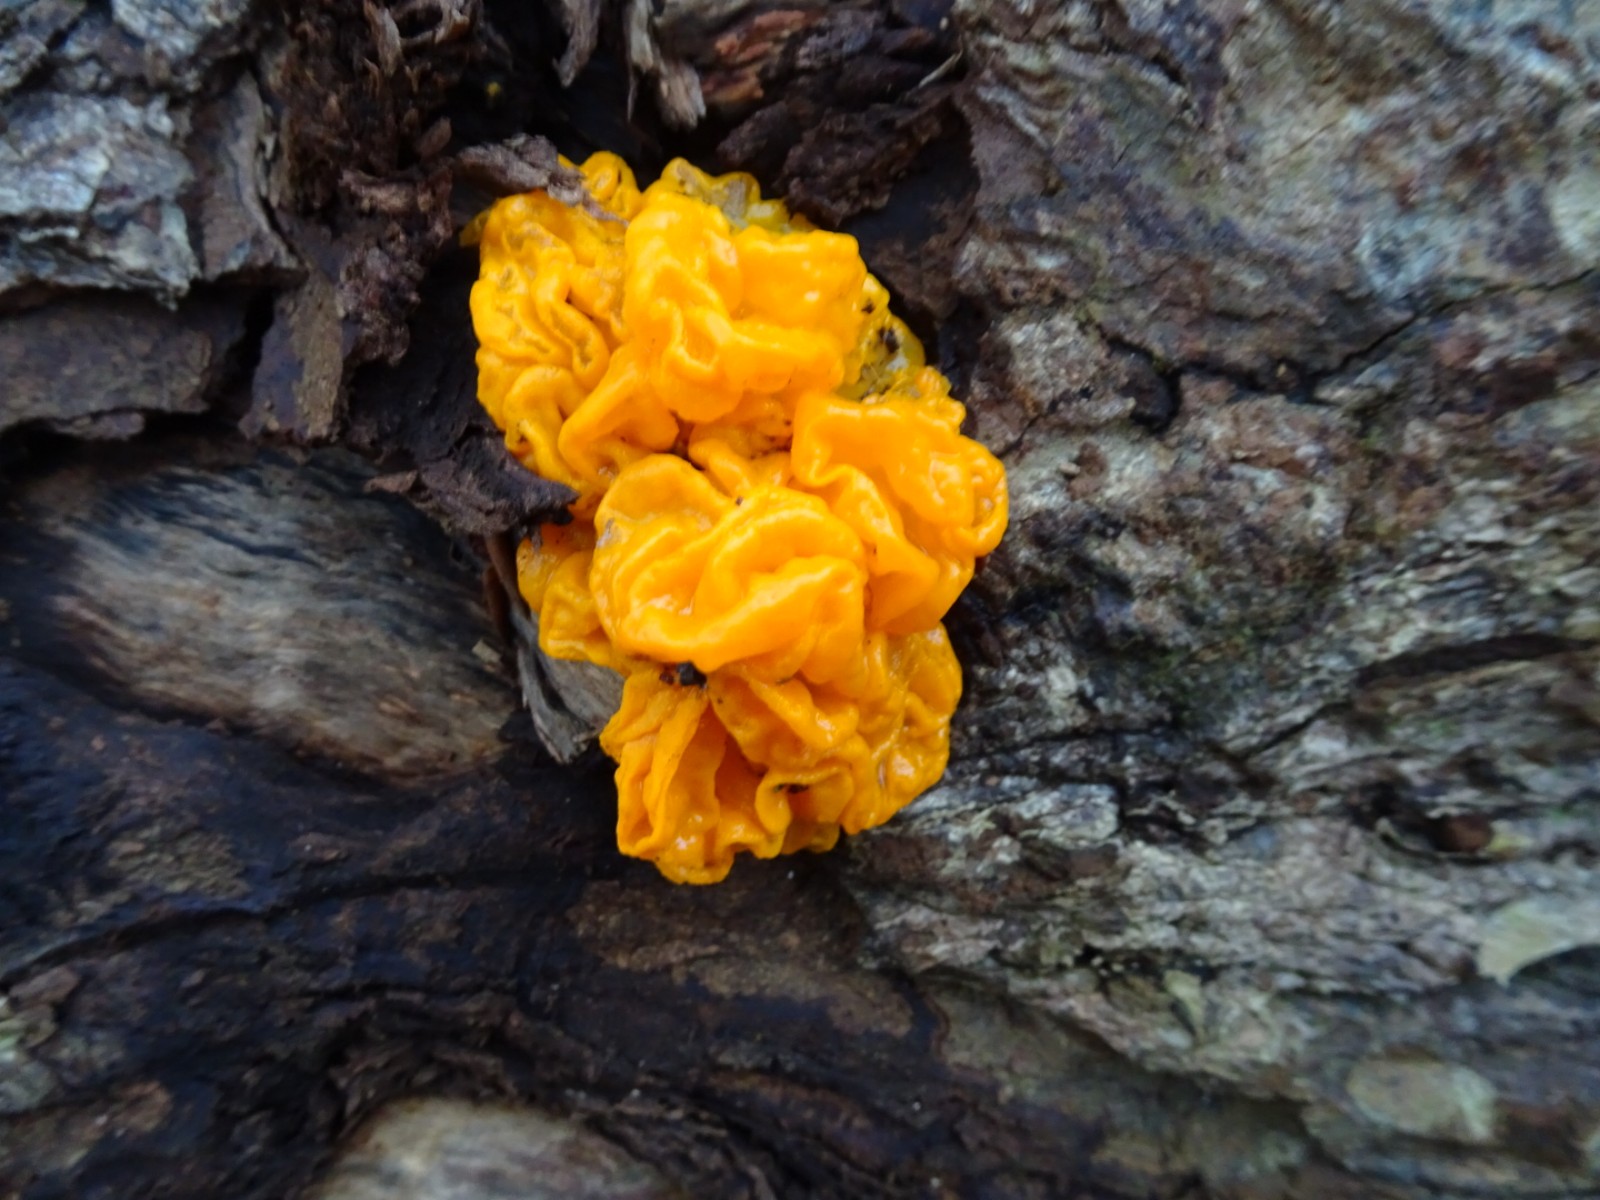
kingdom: Fungi
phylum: Basidiomycota
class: Tremellomycetes
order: Tremellales
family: Tremellaceae
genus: Tremella
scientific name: Tremella mesenterica
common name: gul bævresvamp
